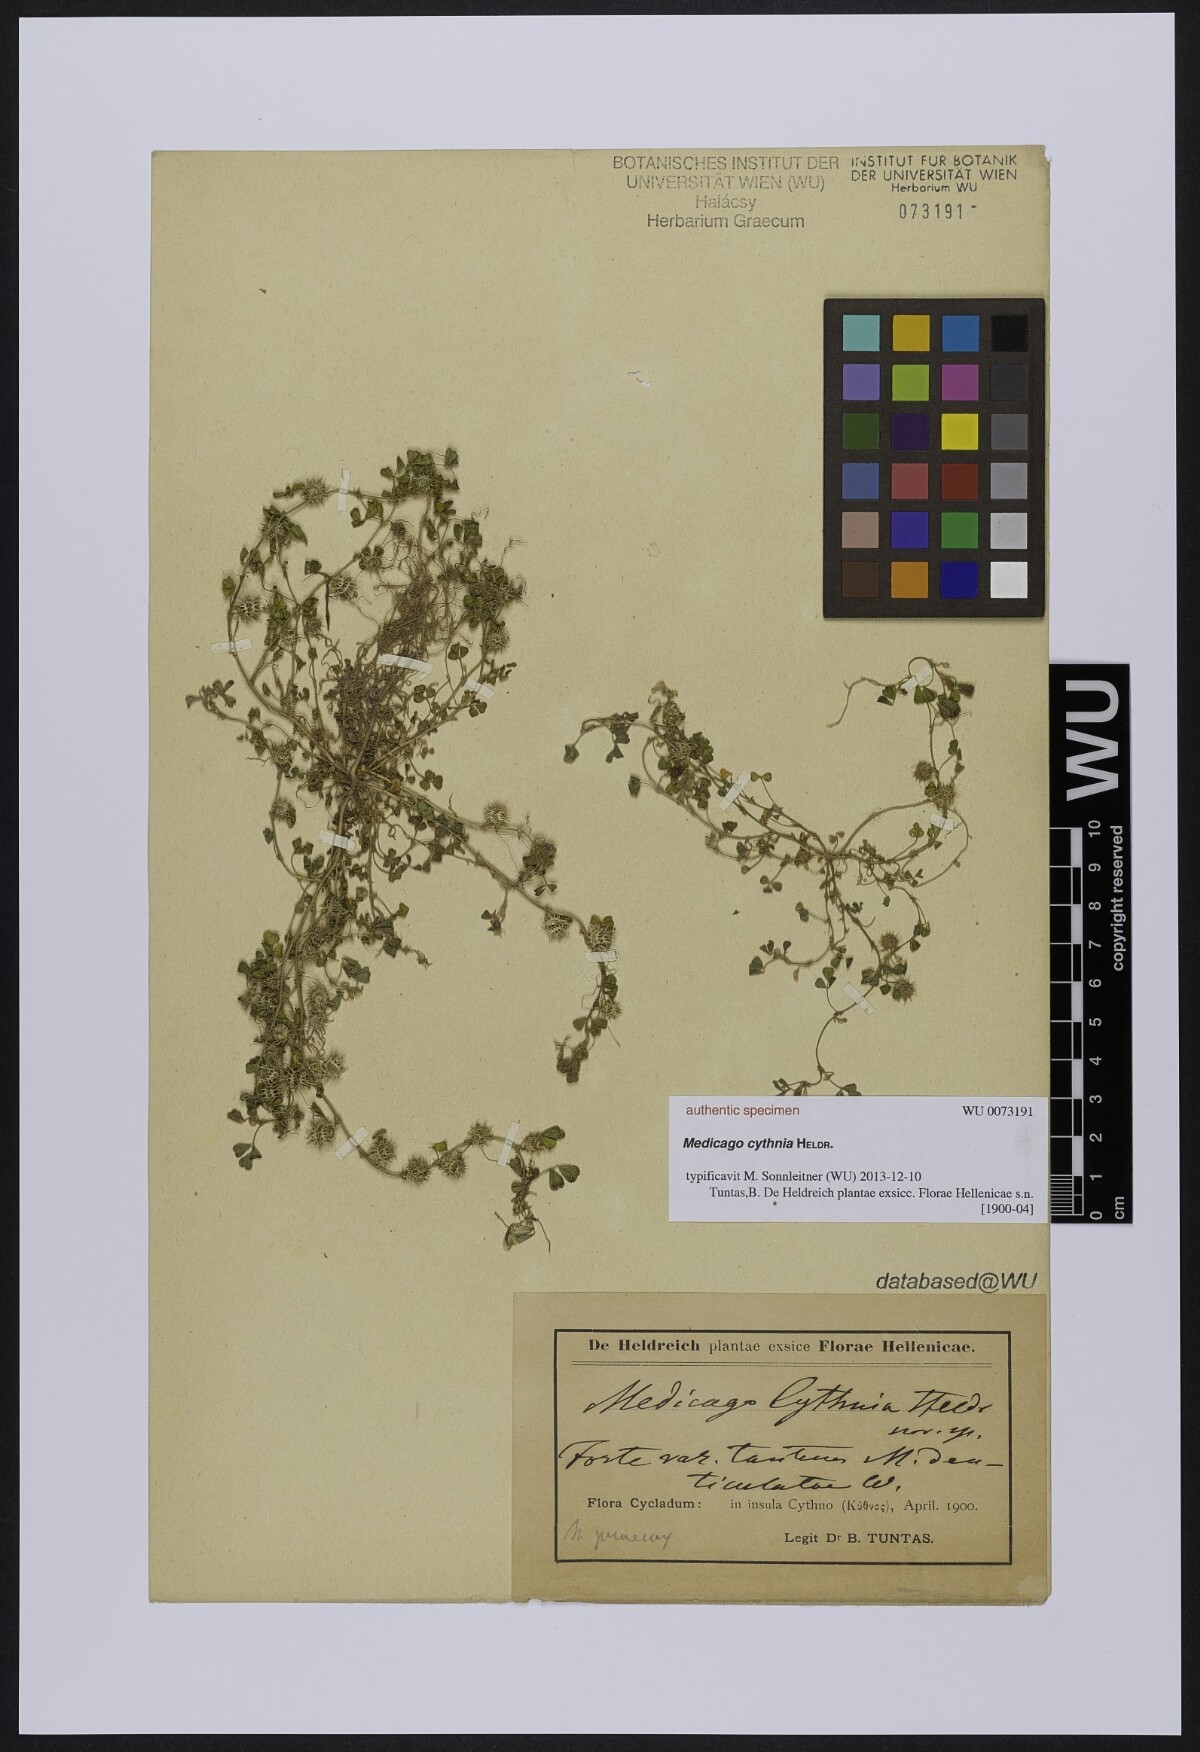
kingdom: Plantae
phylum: Tracheophyta
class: Magnoliopsida
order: Fabales
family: Fabaceae
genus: Medicago
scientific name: Medicago arborea
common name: Moon trefoil
